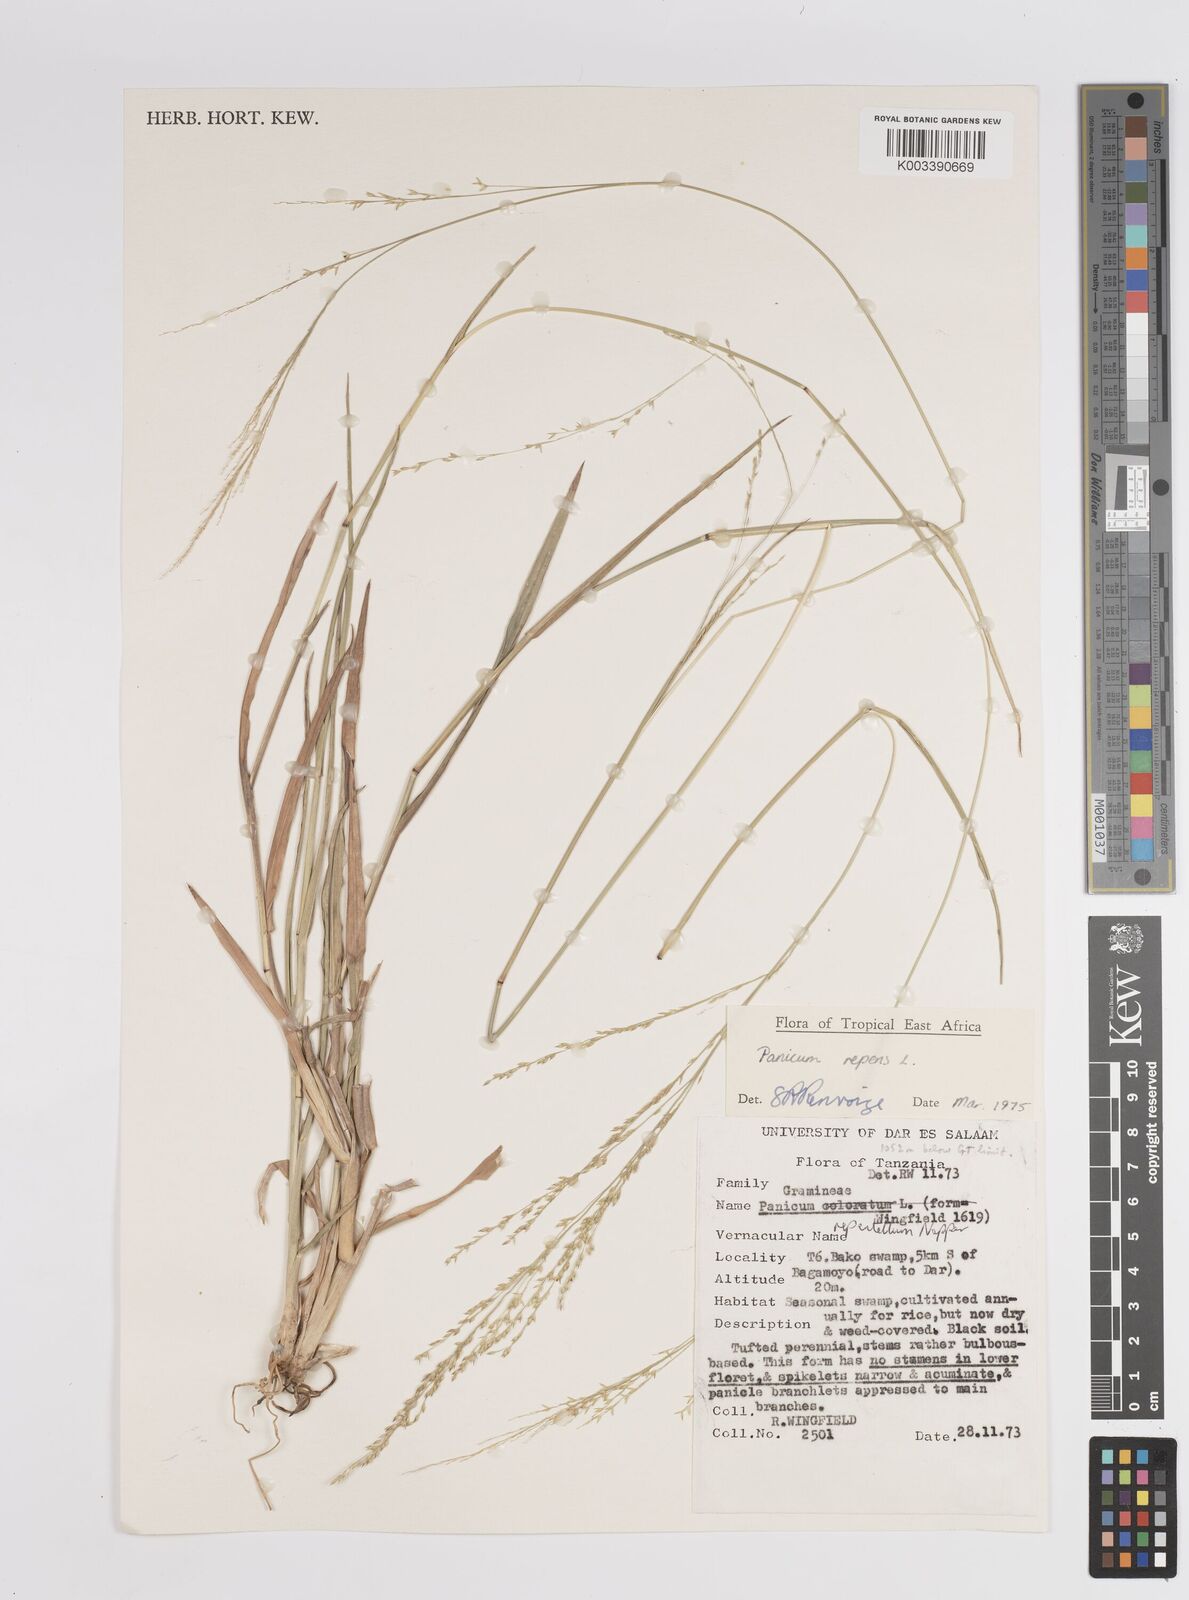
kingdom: Plantae
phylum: Tracheophyta
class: Liliopsida
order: Poales
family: Poaceae
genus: Panicum
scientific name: Panicum repens
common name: Torpedo grass
